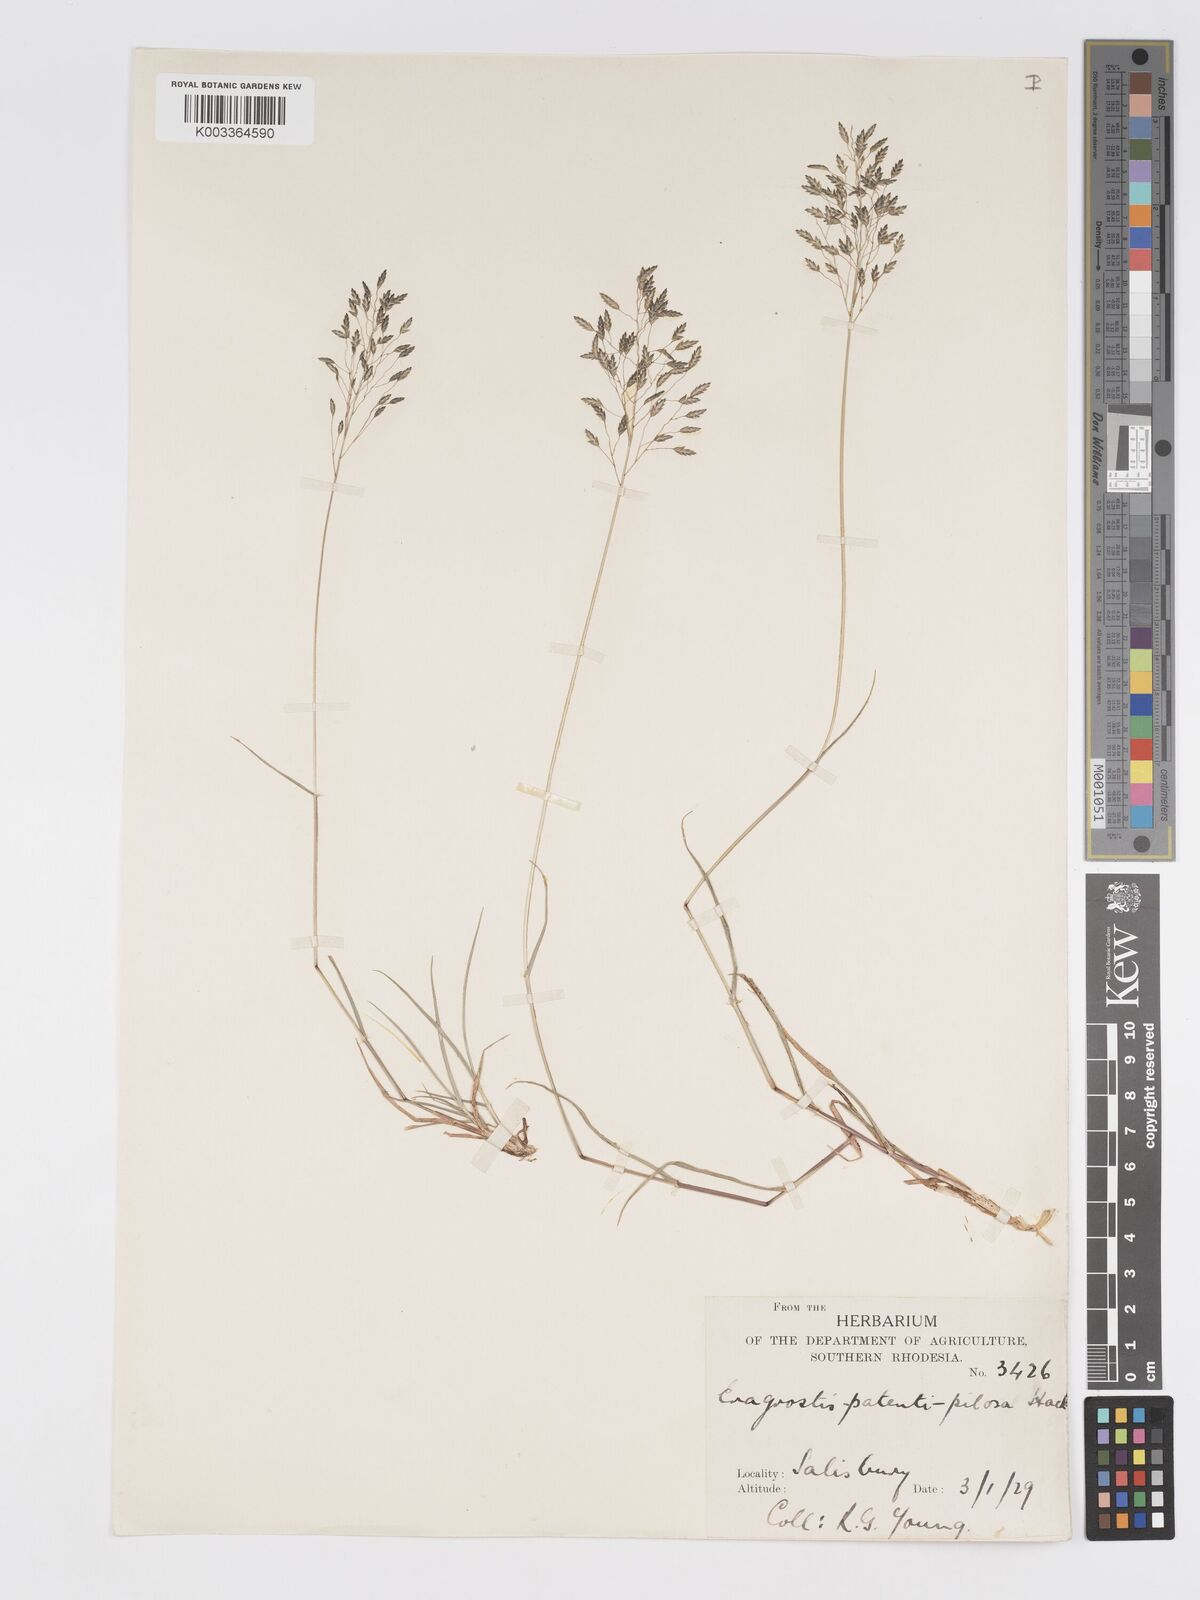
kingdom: Plantae
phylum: Tracheophyta
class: Liliopsida
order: Poales
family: Poaceae
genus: Eragrostis
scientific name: Eragrostis patentipilosa
